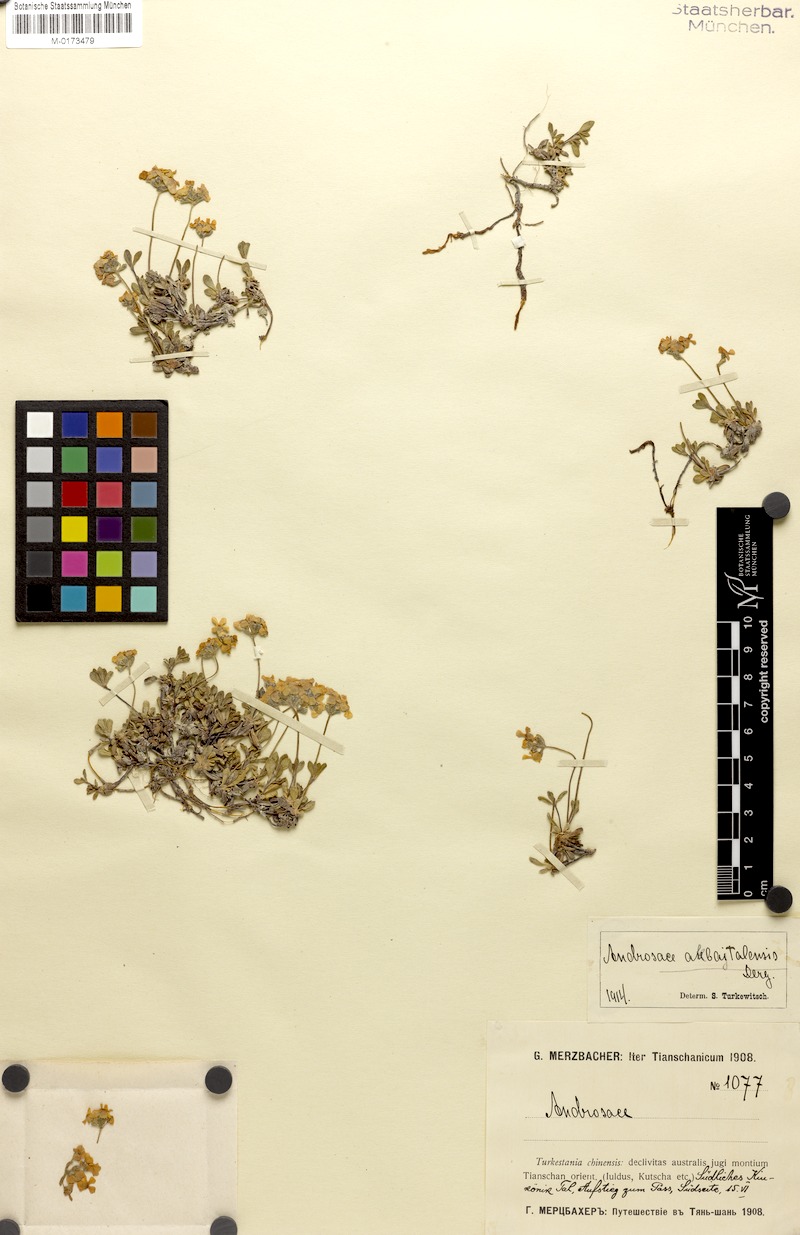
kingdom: Plantae
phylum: Tracheophyta
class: Magnoliopsida
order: Ericales
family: Primulaceae
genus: Androsace
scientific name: Androsace flavescens
